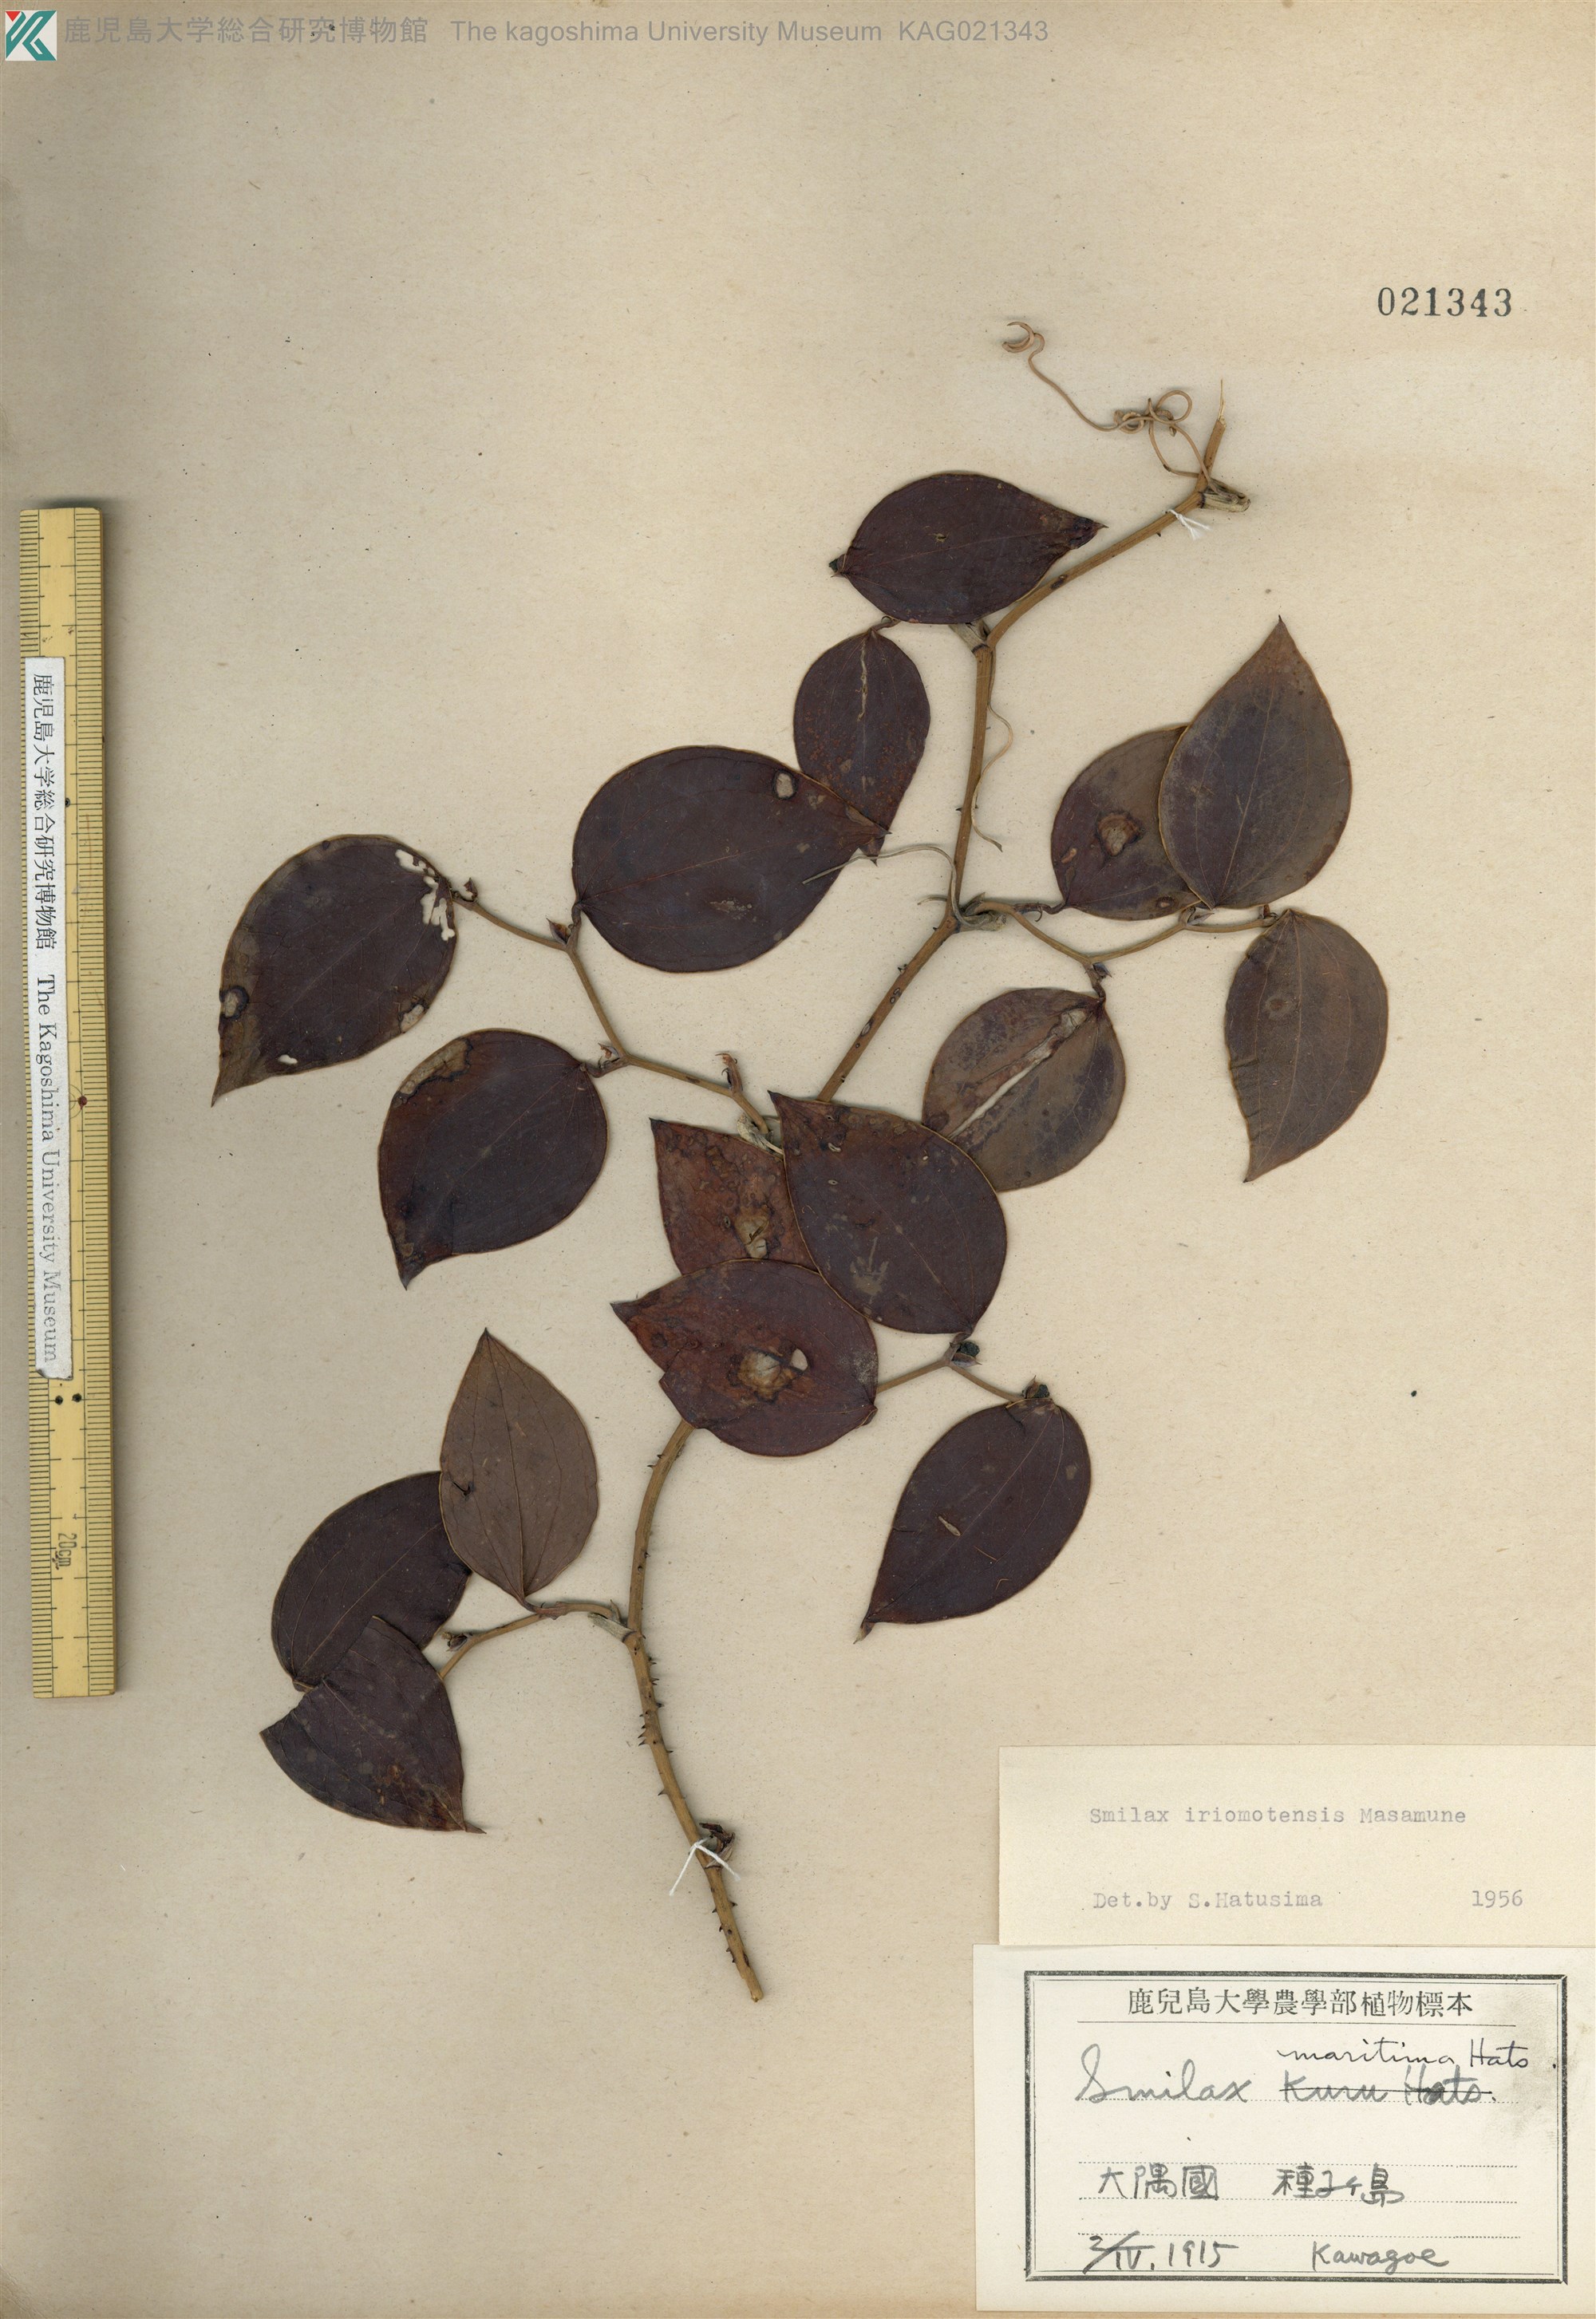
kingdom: Plantae
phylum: Tracheophyta
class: Liliopsida
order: Liliales
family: Smilacaceae
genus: Smilax
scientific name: Smilax sebeana
